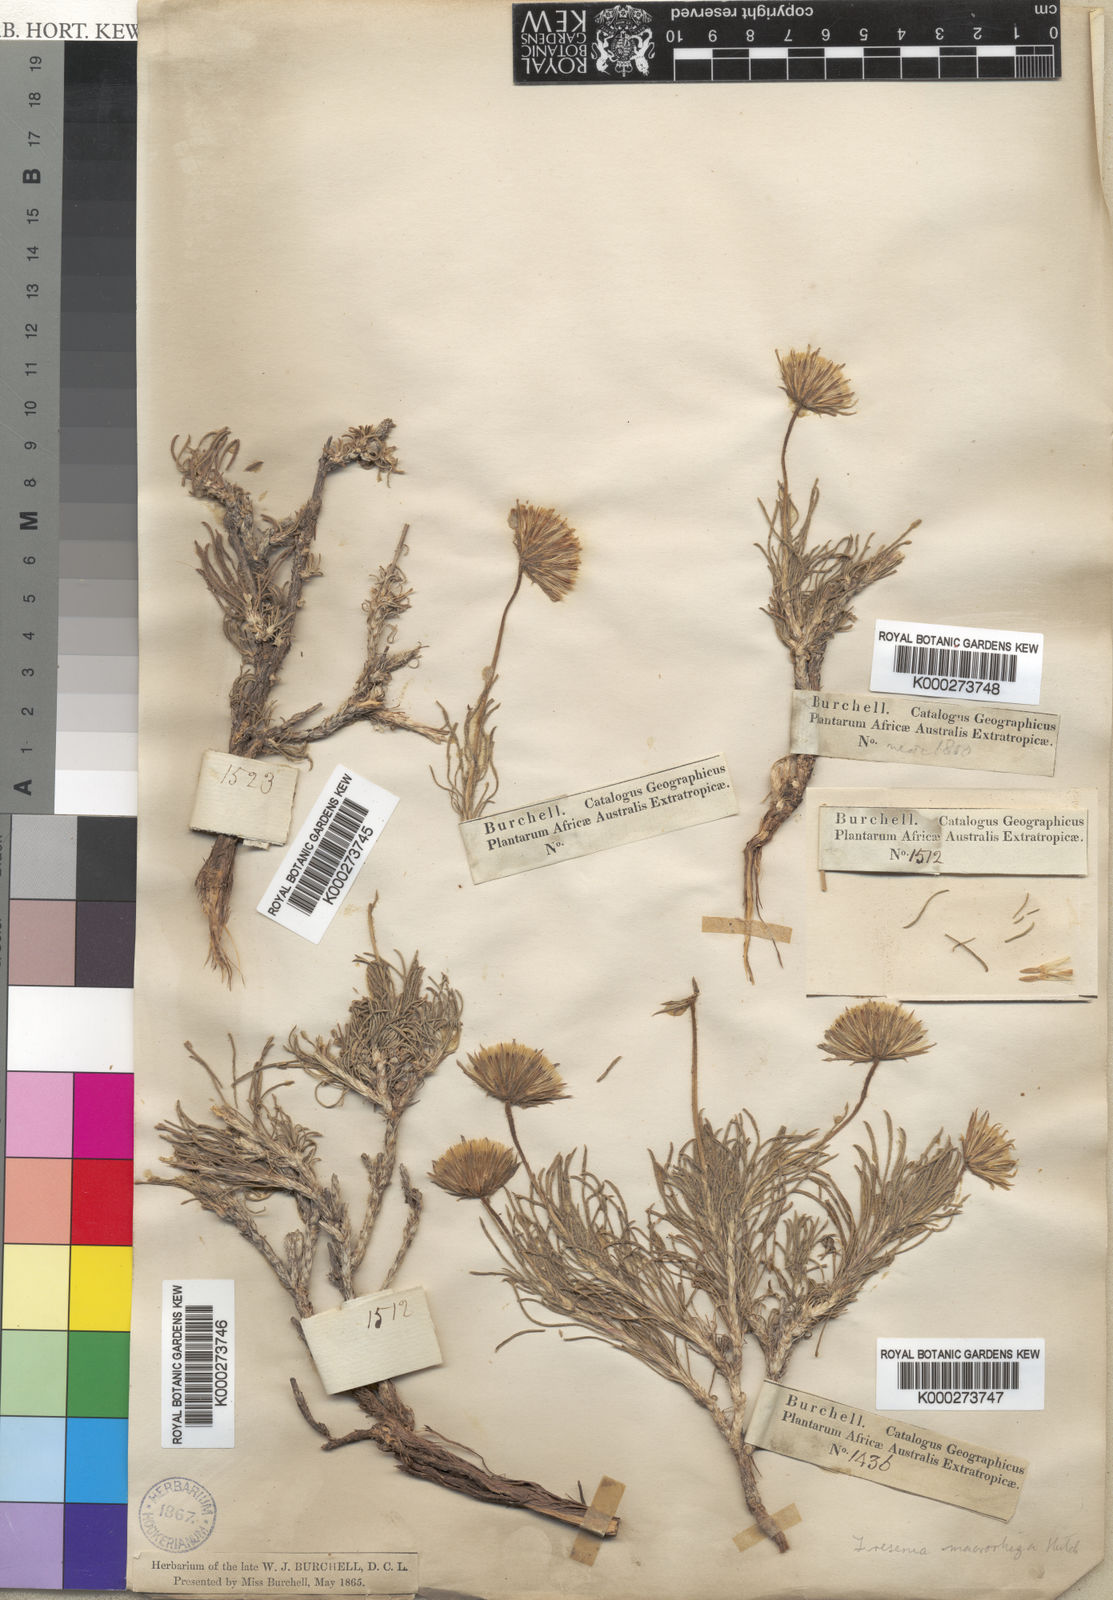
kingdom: Plantae
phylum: Tracheophyta
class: Magnoliopsida
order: Asterales
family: Asteraceae
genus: Felicia
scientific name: Felicia macrorrhiza
